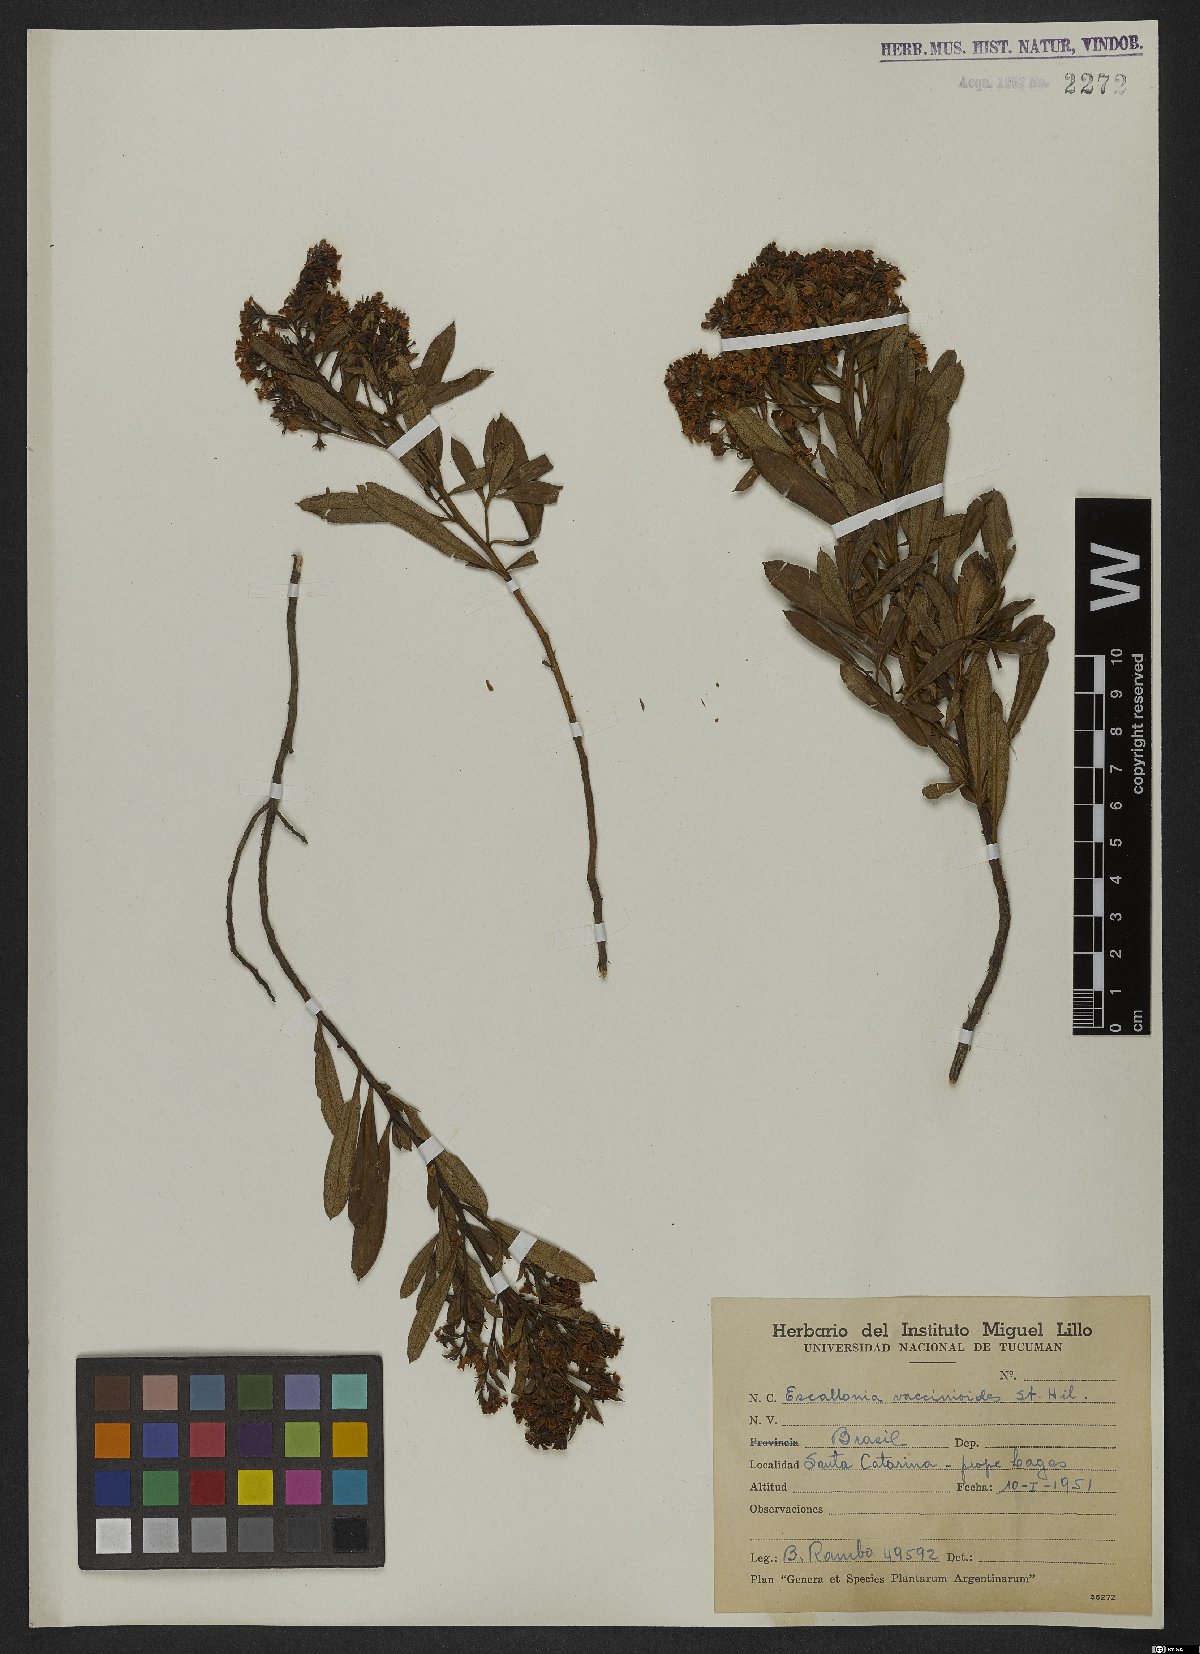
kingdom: Plantae
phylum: Tracheophyta
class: Magnoliopsida
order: Escalloniales
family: Escalloniaceae
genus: Escallonia
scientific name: Escallonia megapotamica
